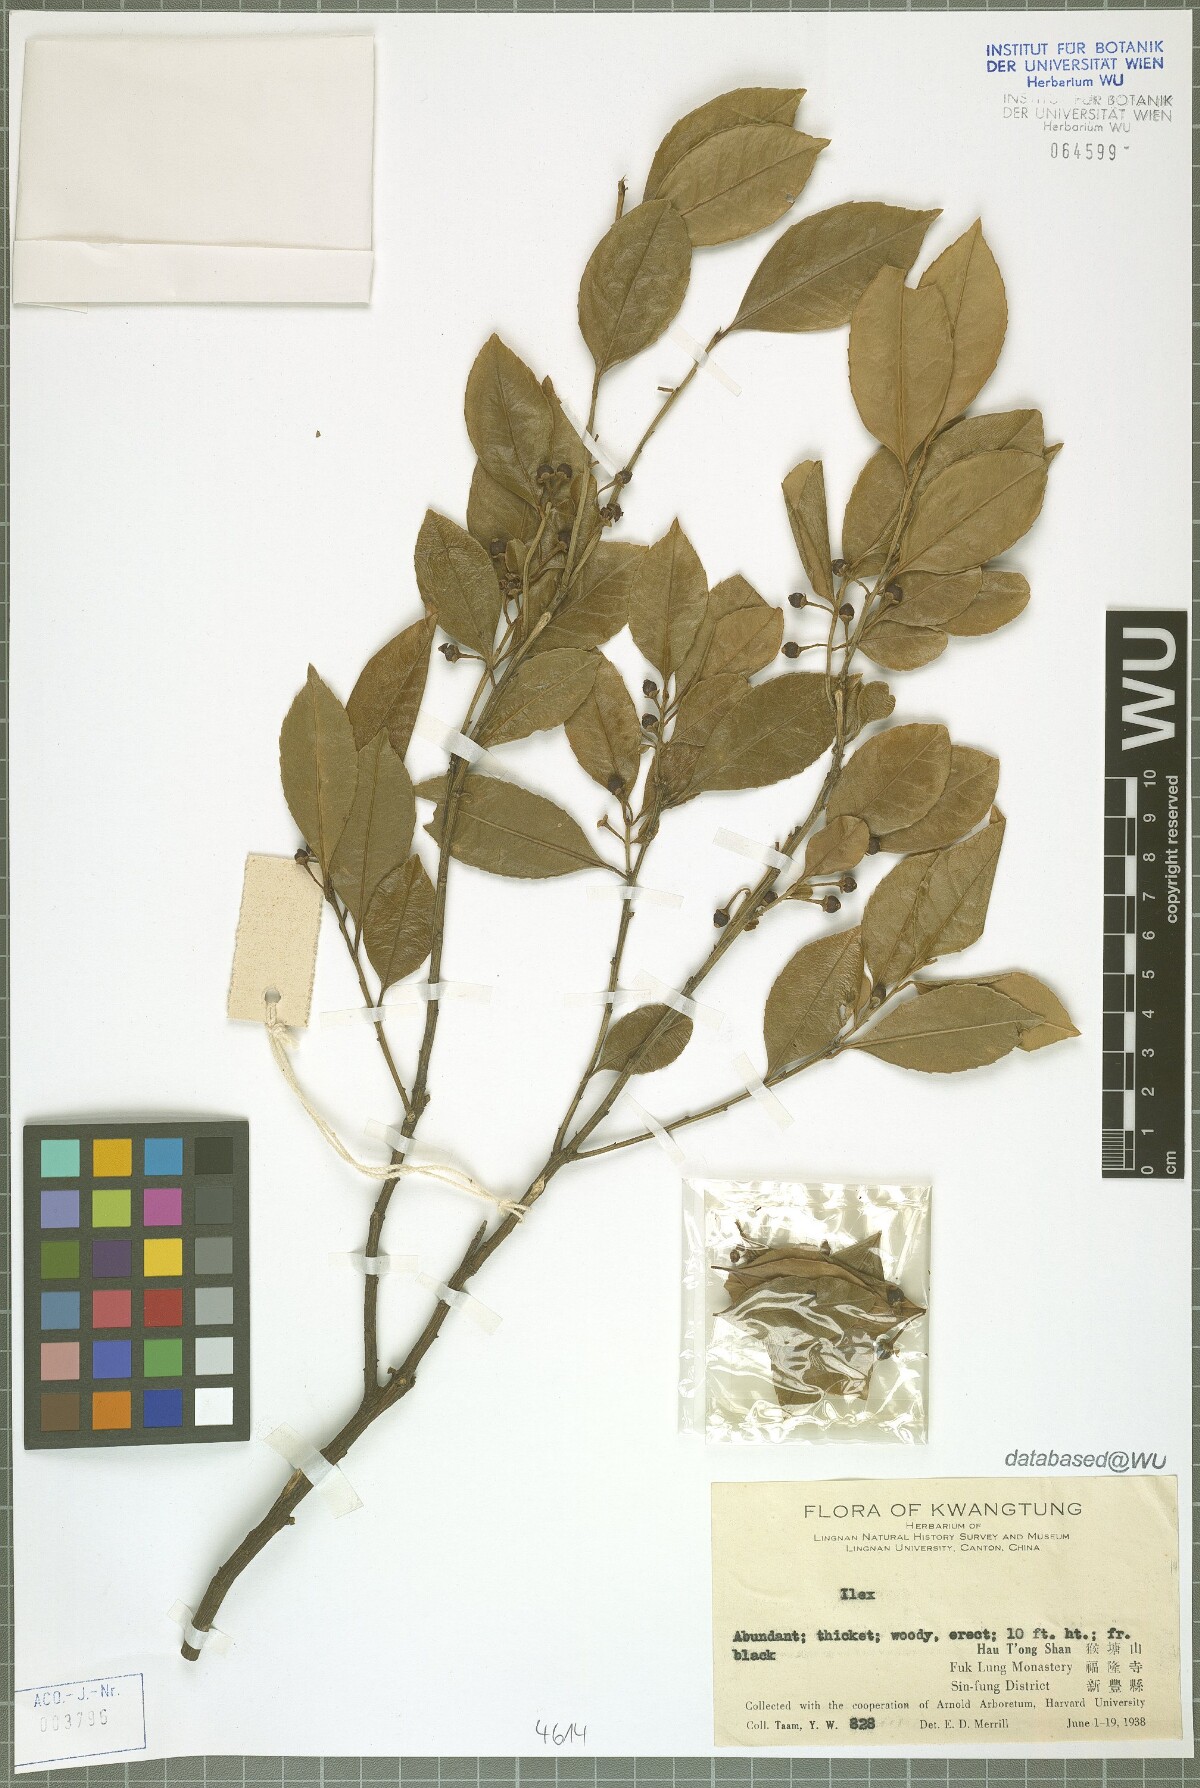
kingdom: Plantae
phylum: Tracheophyta
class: Magnoliopsida
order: Aquifoliales
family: Aquifoliaceae
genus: Ilex
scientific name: Ilex
